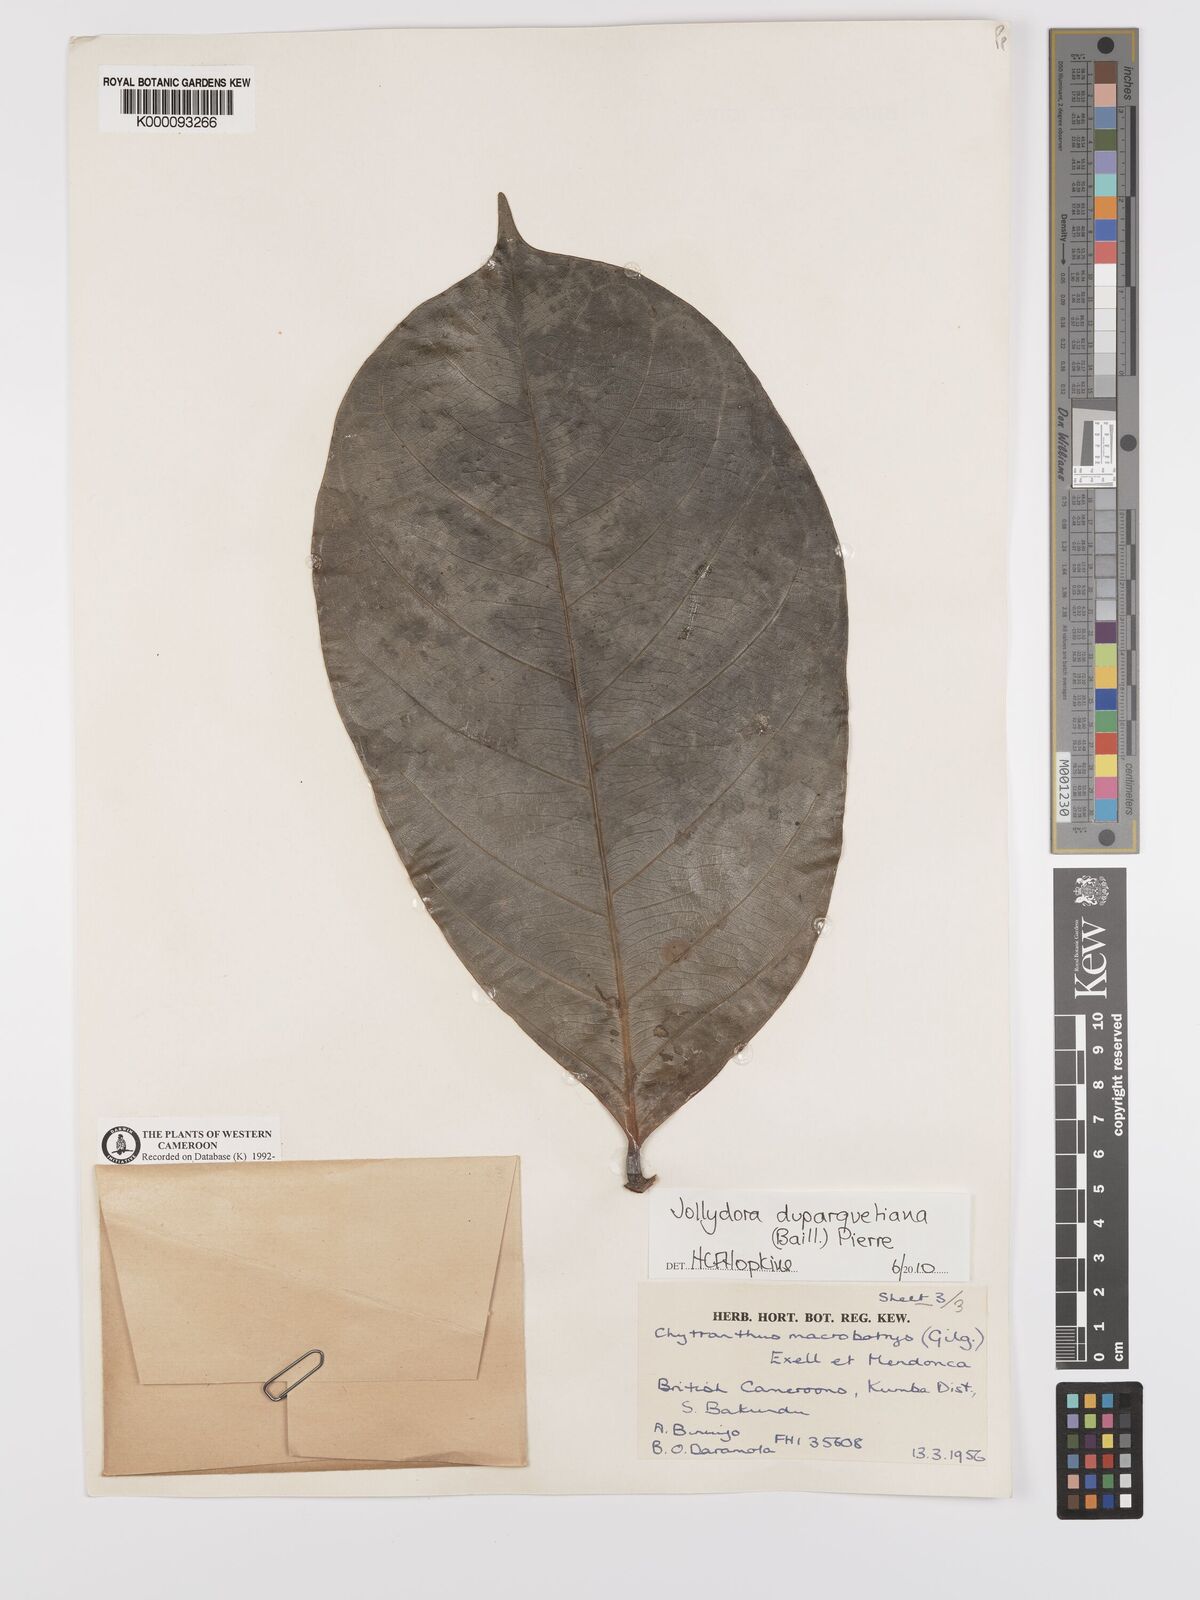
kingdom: Plantae
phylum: Tracheophyta
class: Magnoliopsida
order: Oxalidales
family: Connaraceae
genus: Jollydora
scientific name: Jollydora duparquetiana
